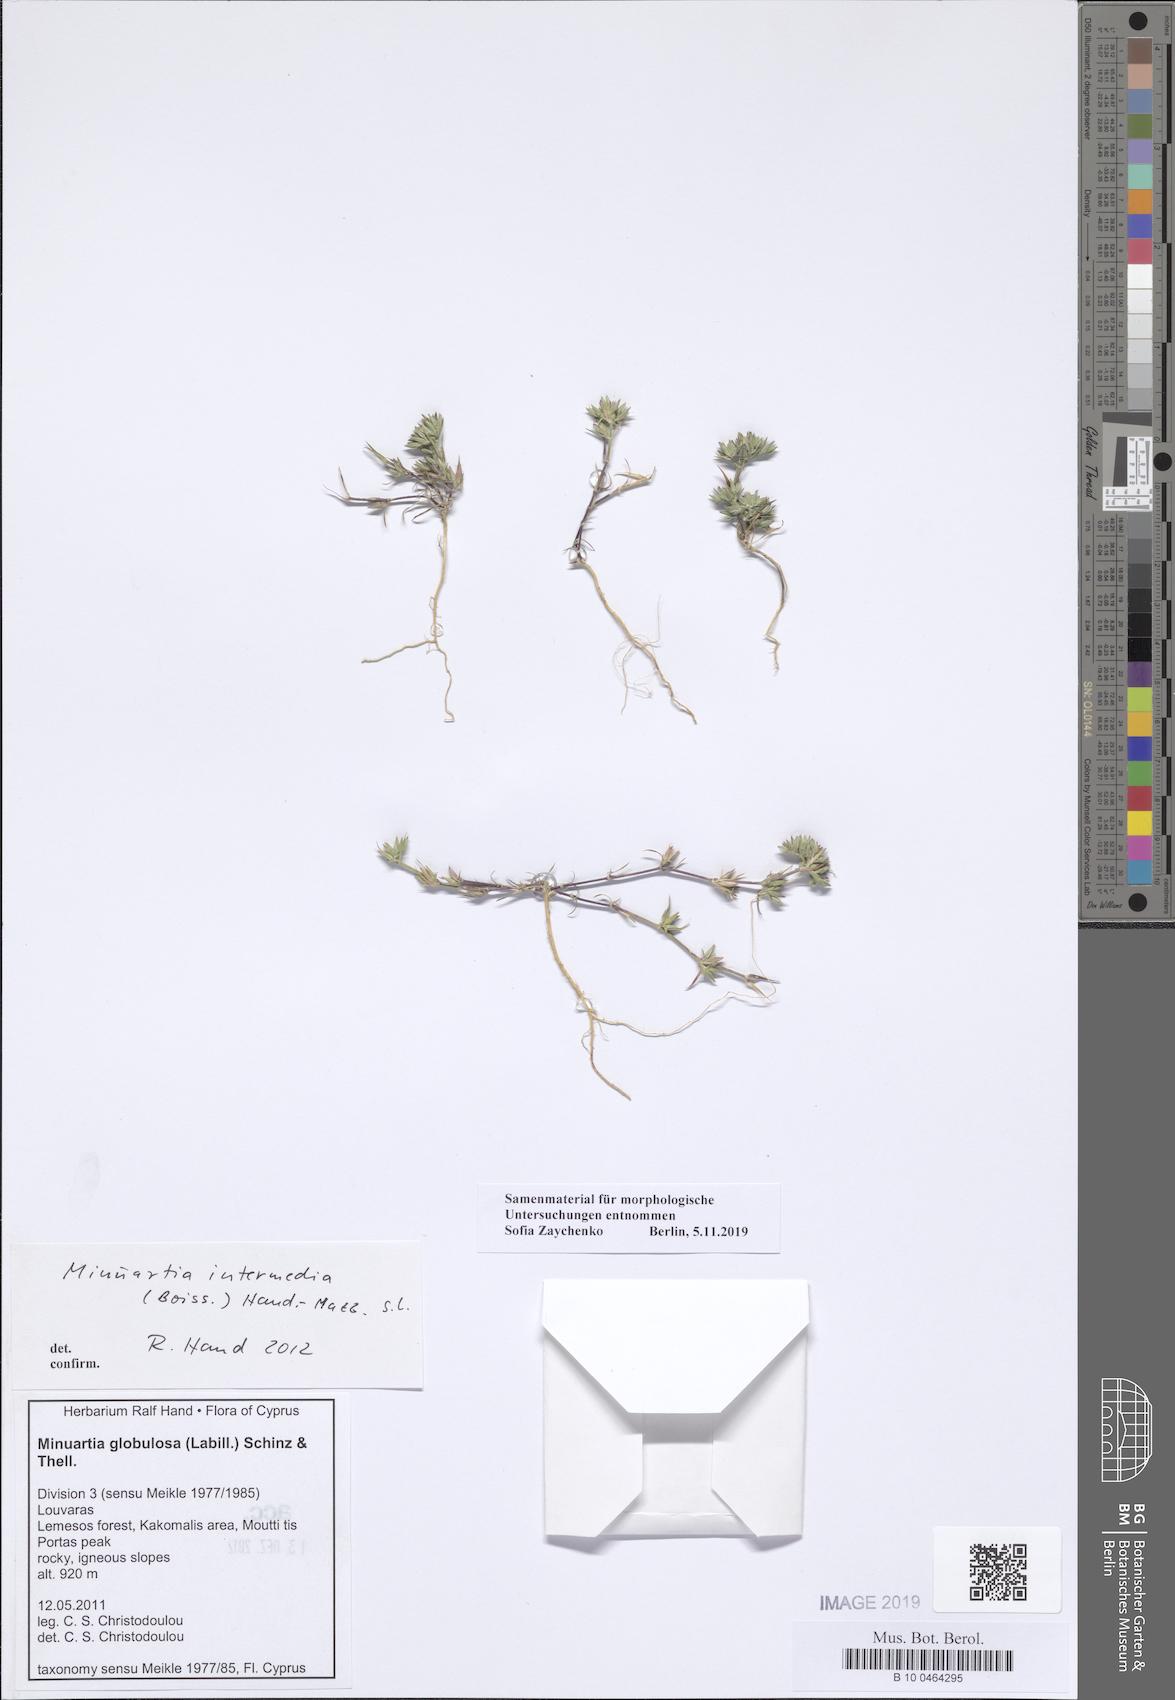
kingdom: Plantae
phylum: Tracheophyta
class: Magnoliopsida
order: Caryophyllales
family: Caryophyllaceae
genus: Minuartia
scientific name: Minuartia intermedia
